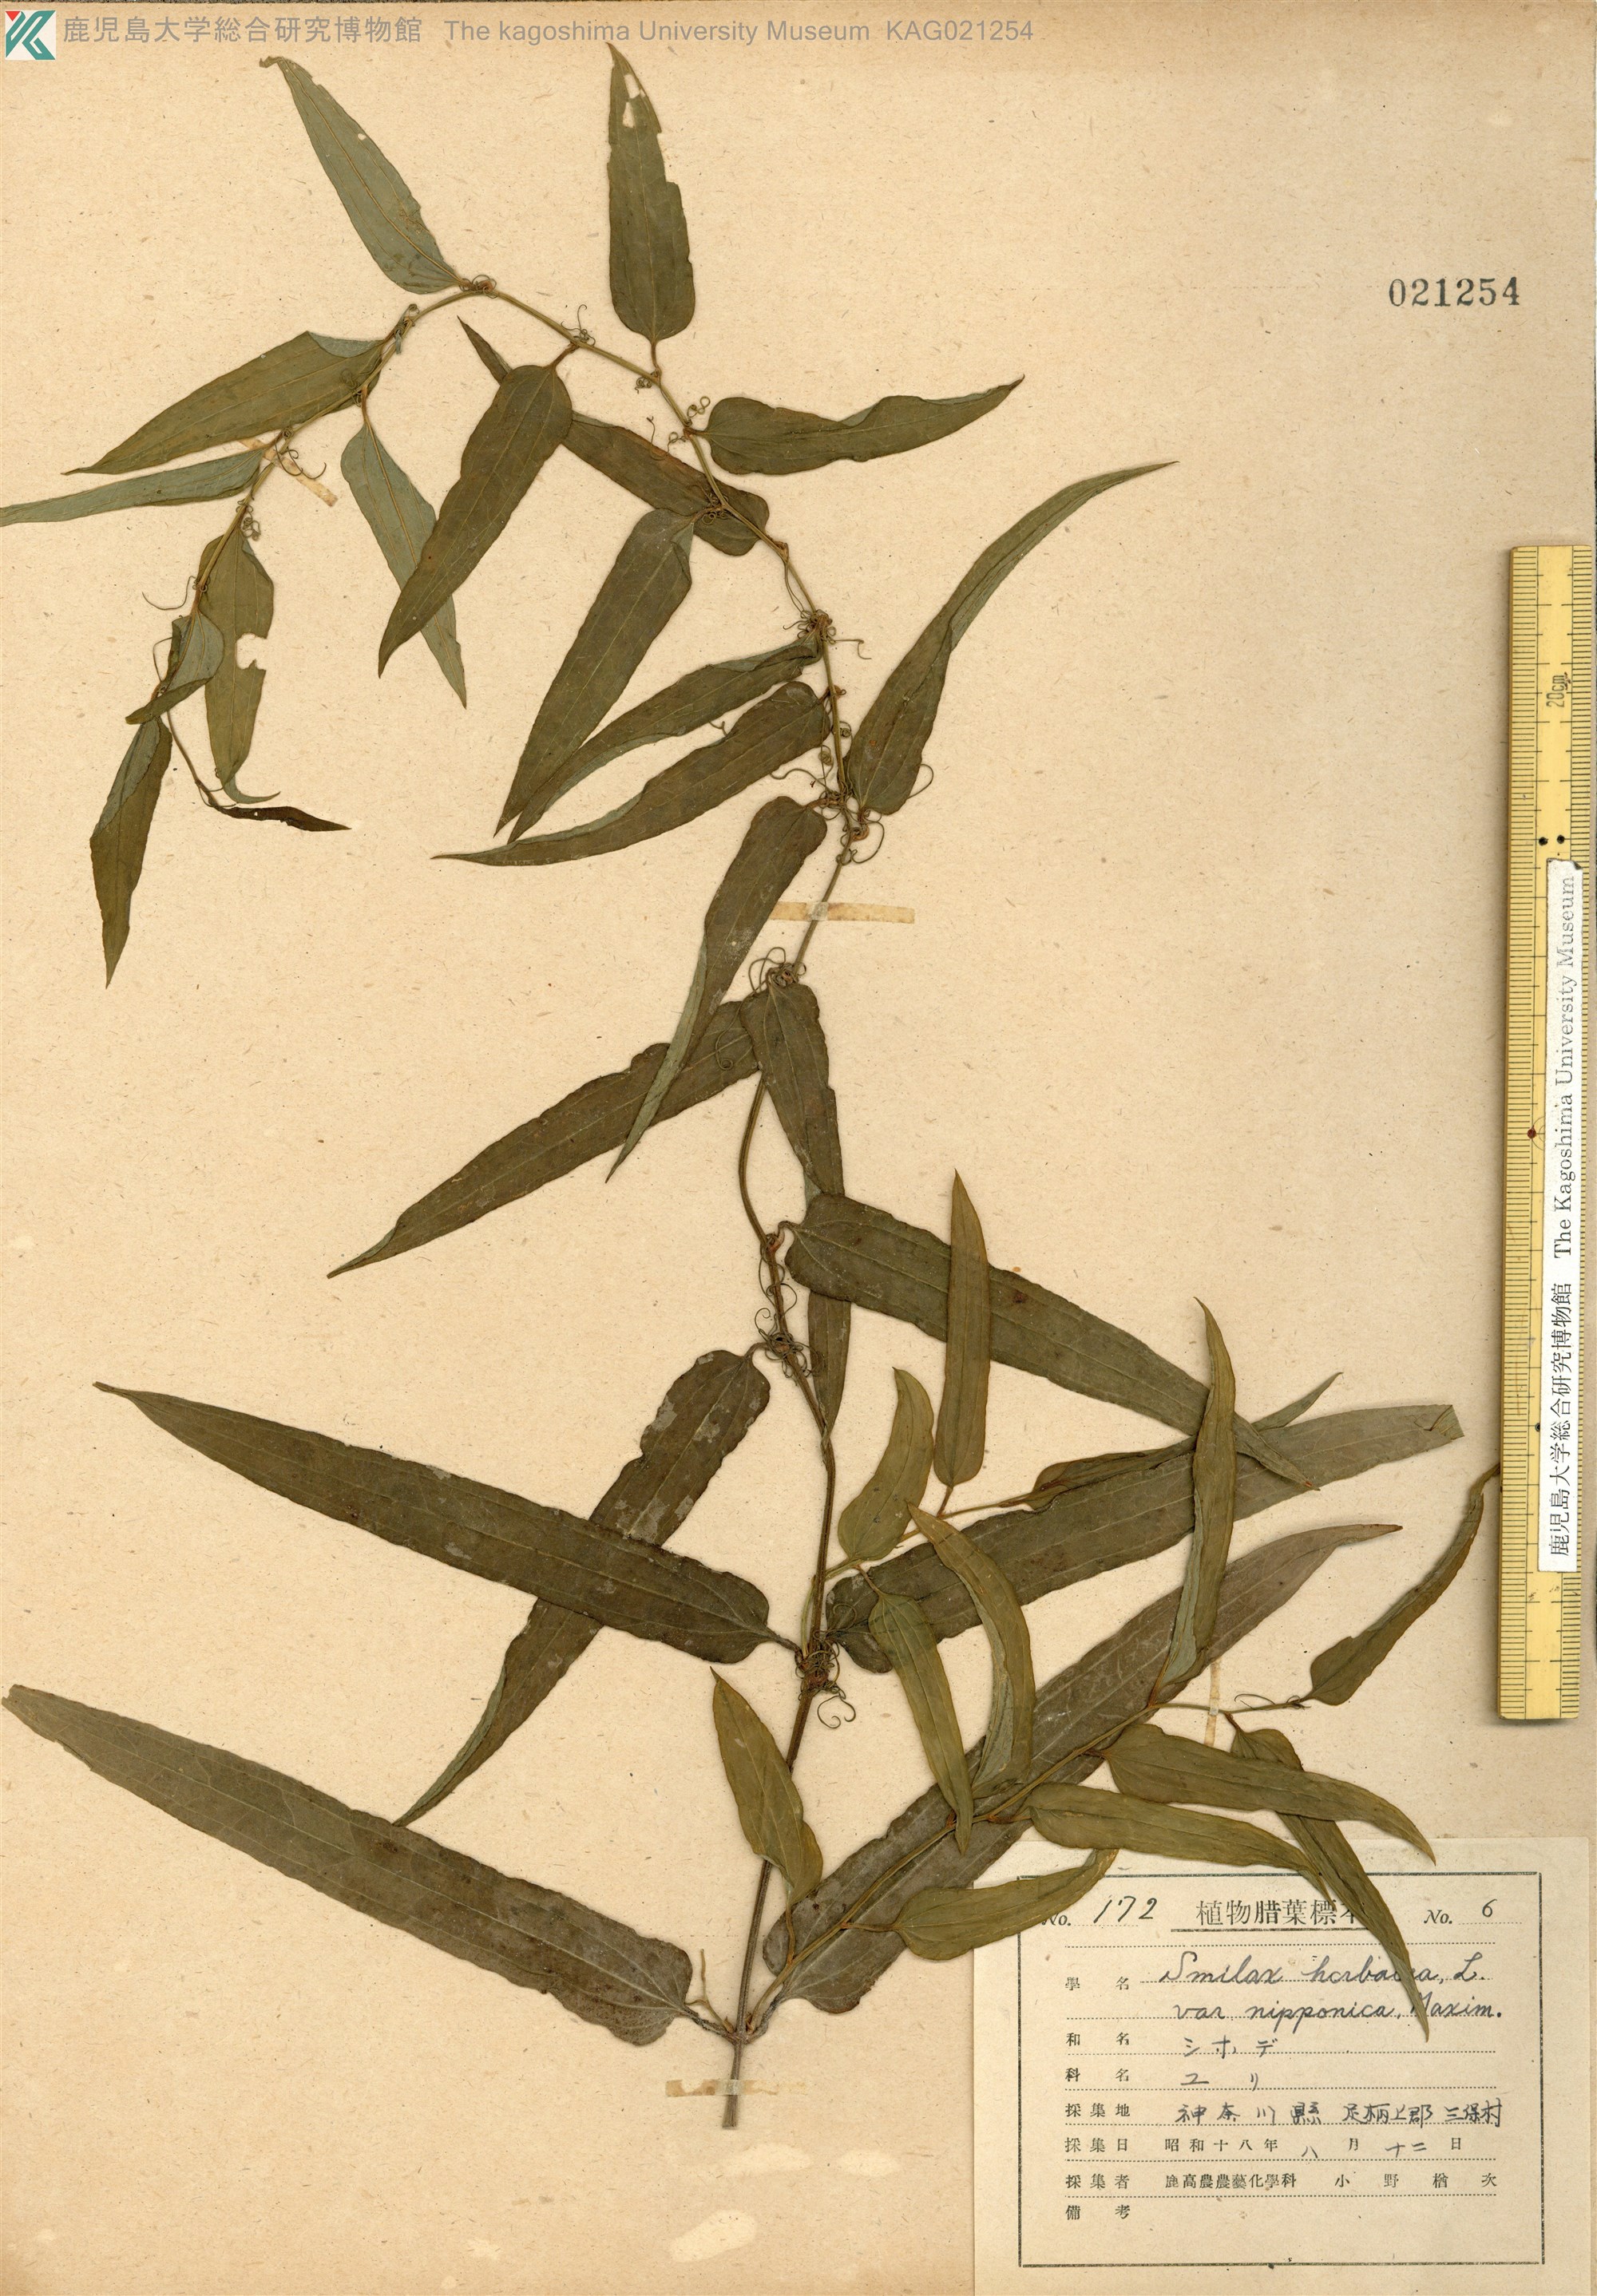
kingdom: Plantae
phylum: Tracheophyta
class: Liliopsida
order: Liliales
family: Smilacaceae
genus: Smilax
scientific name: Smilax riparia
